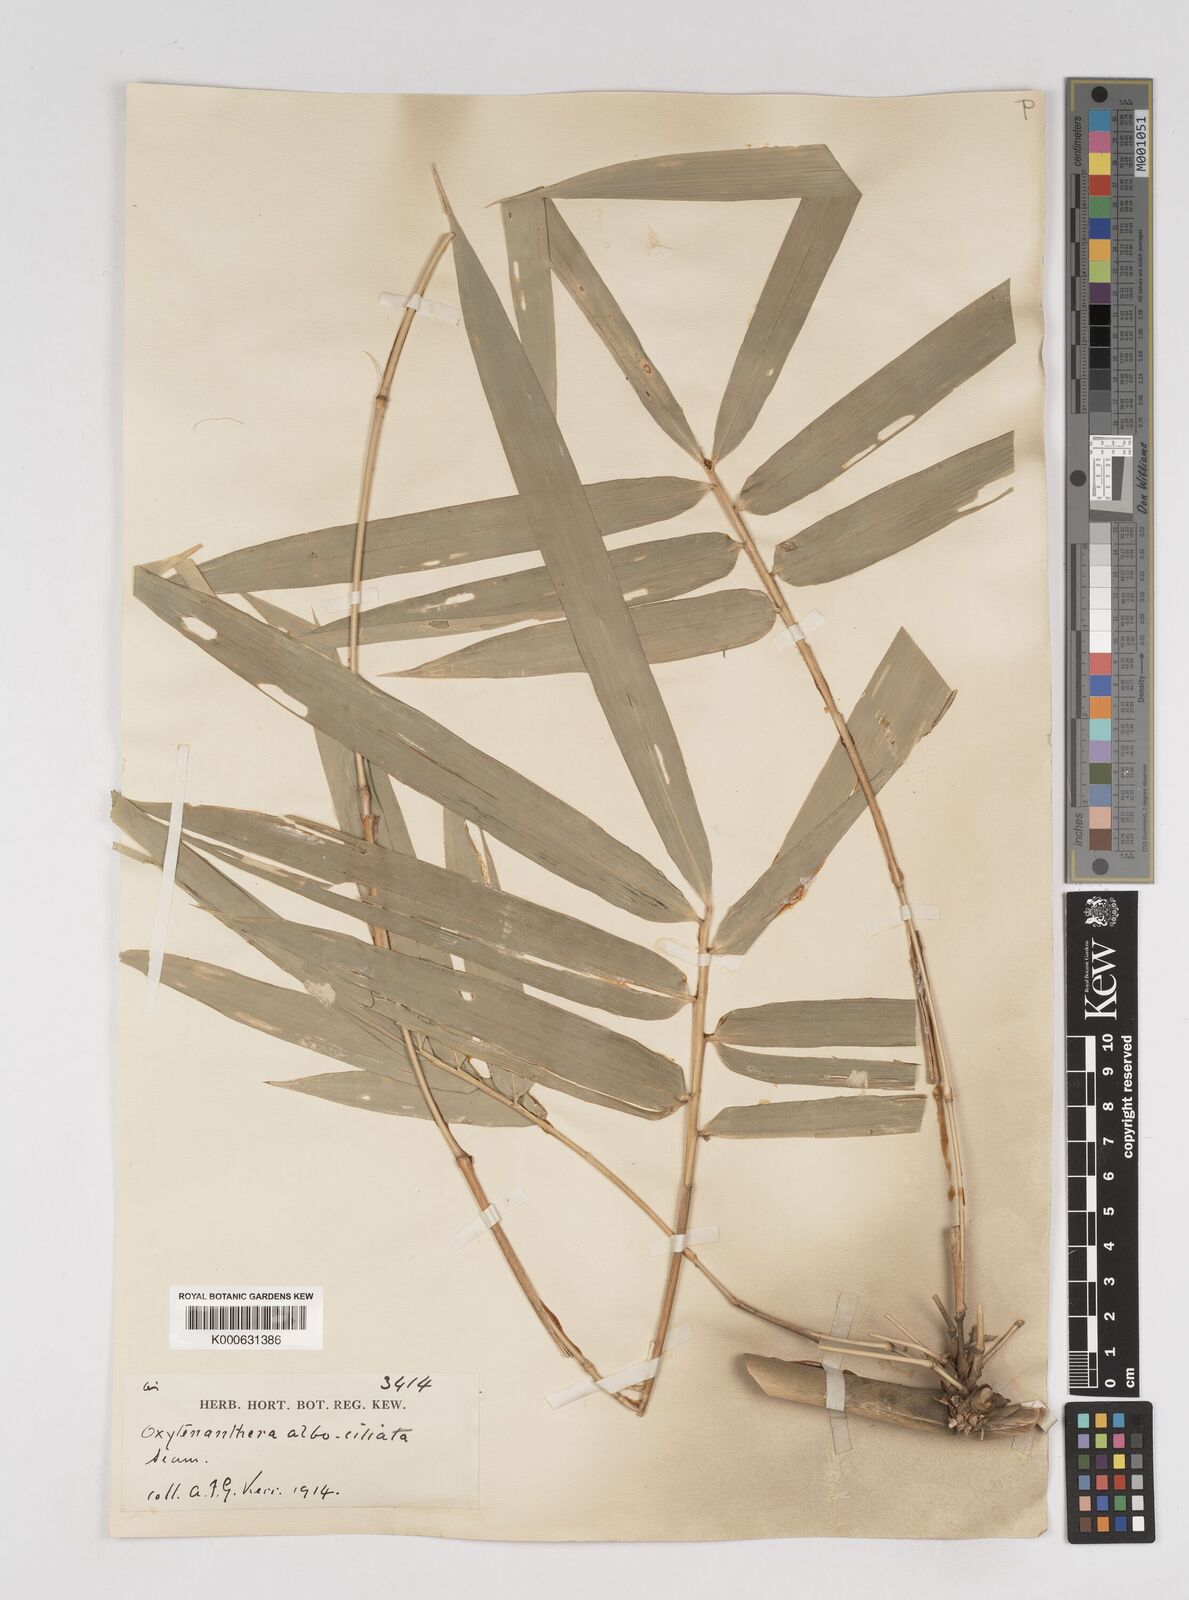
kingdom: Plantae
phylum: Tracheophyta
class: Liliopsida
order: Poales
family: Poaceae
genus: Dendrocalamus
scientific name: Dendrocalamus
